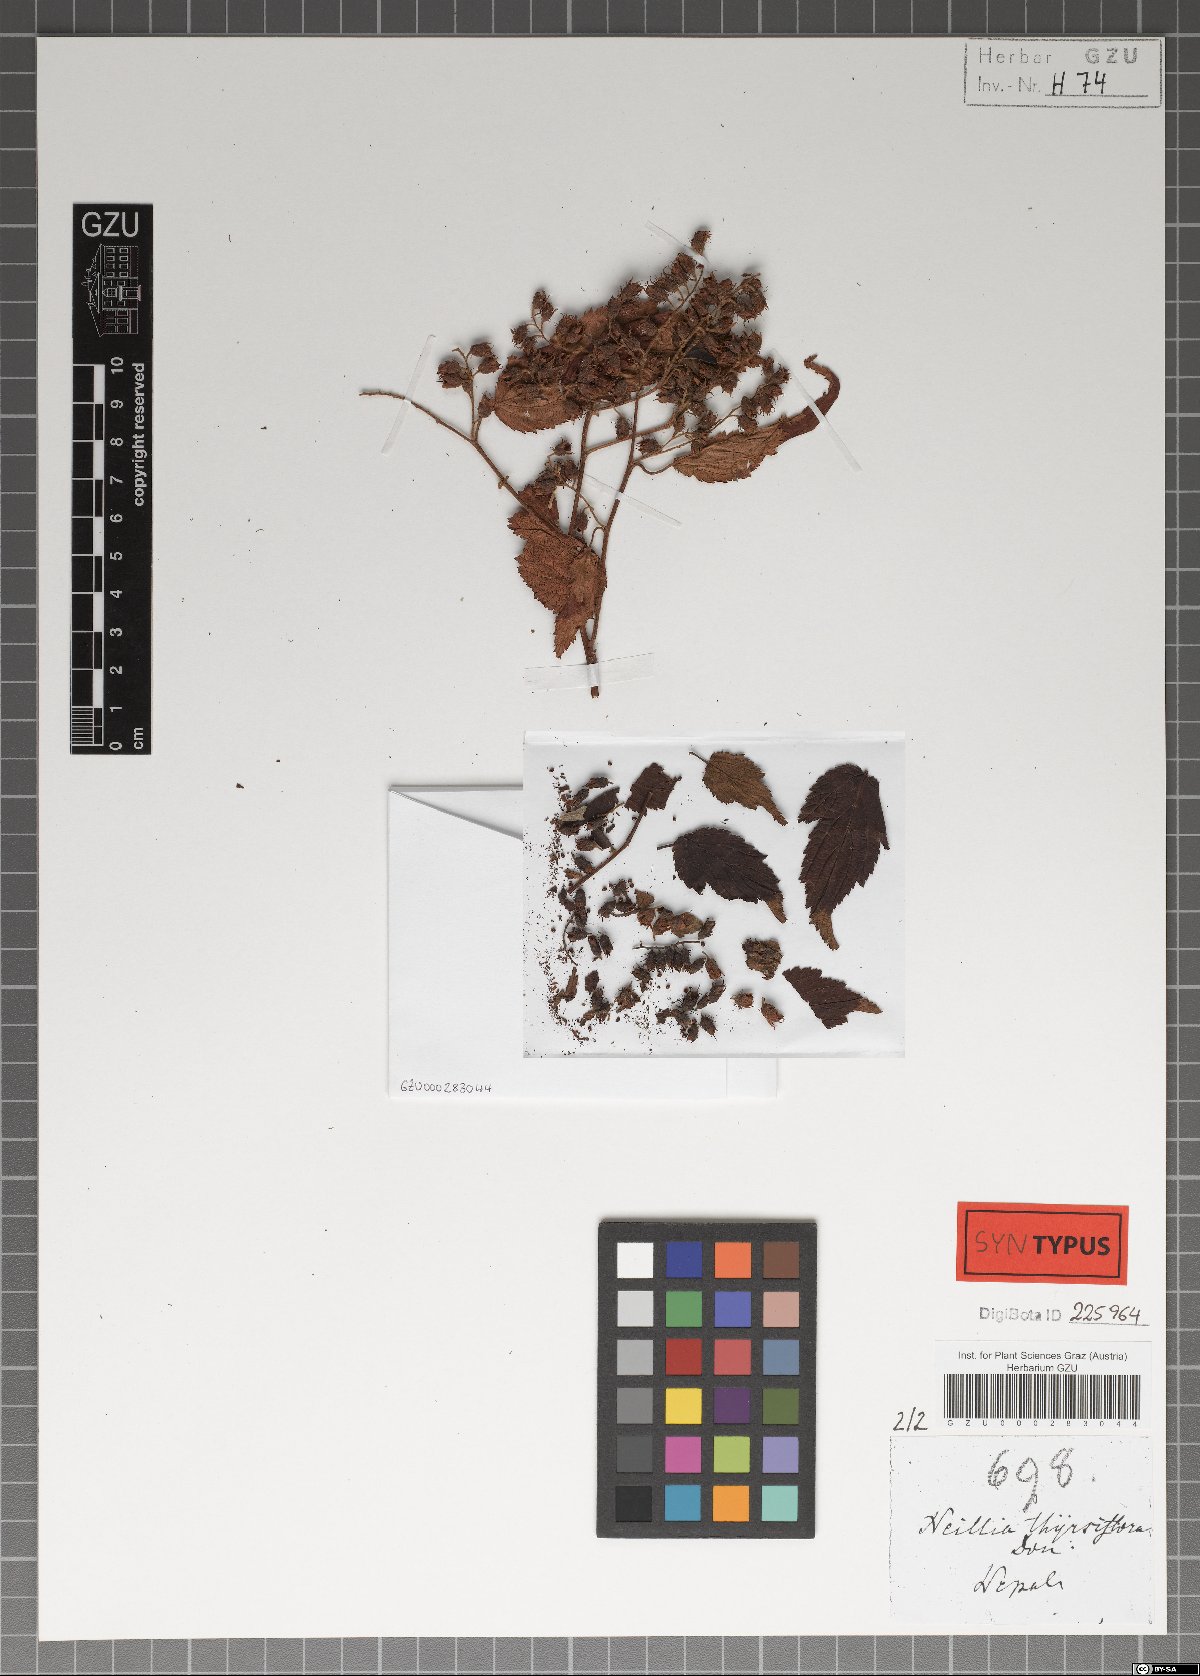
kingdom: Plantae
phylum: Tracheophyta
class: Magnoliopsida
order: Rosales
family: Rosaceae
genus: Neillia
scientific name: Neillia thyrsiflora
